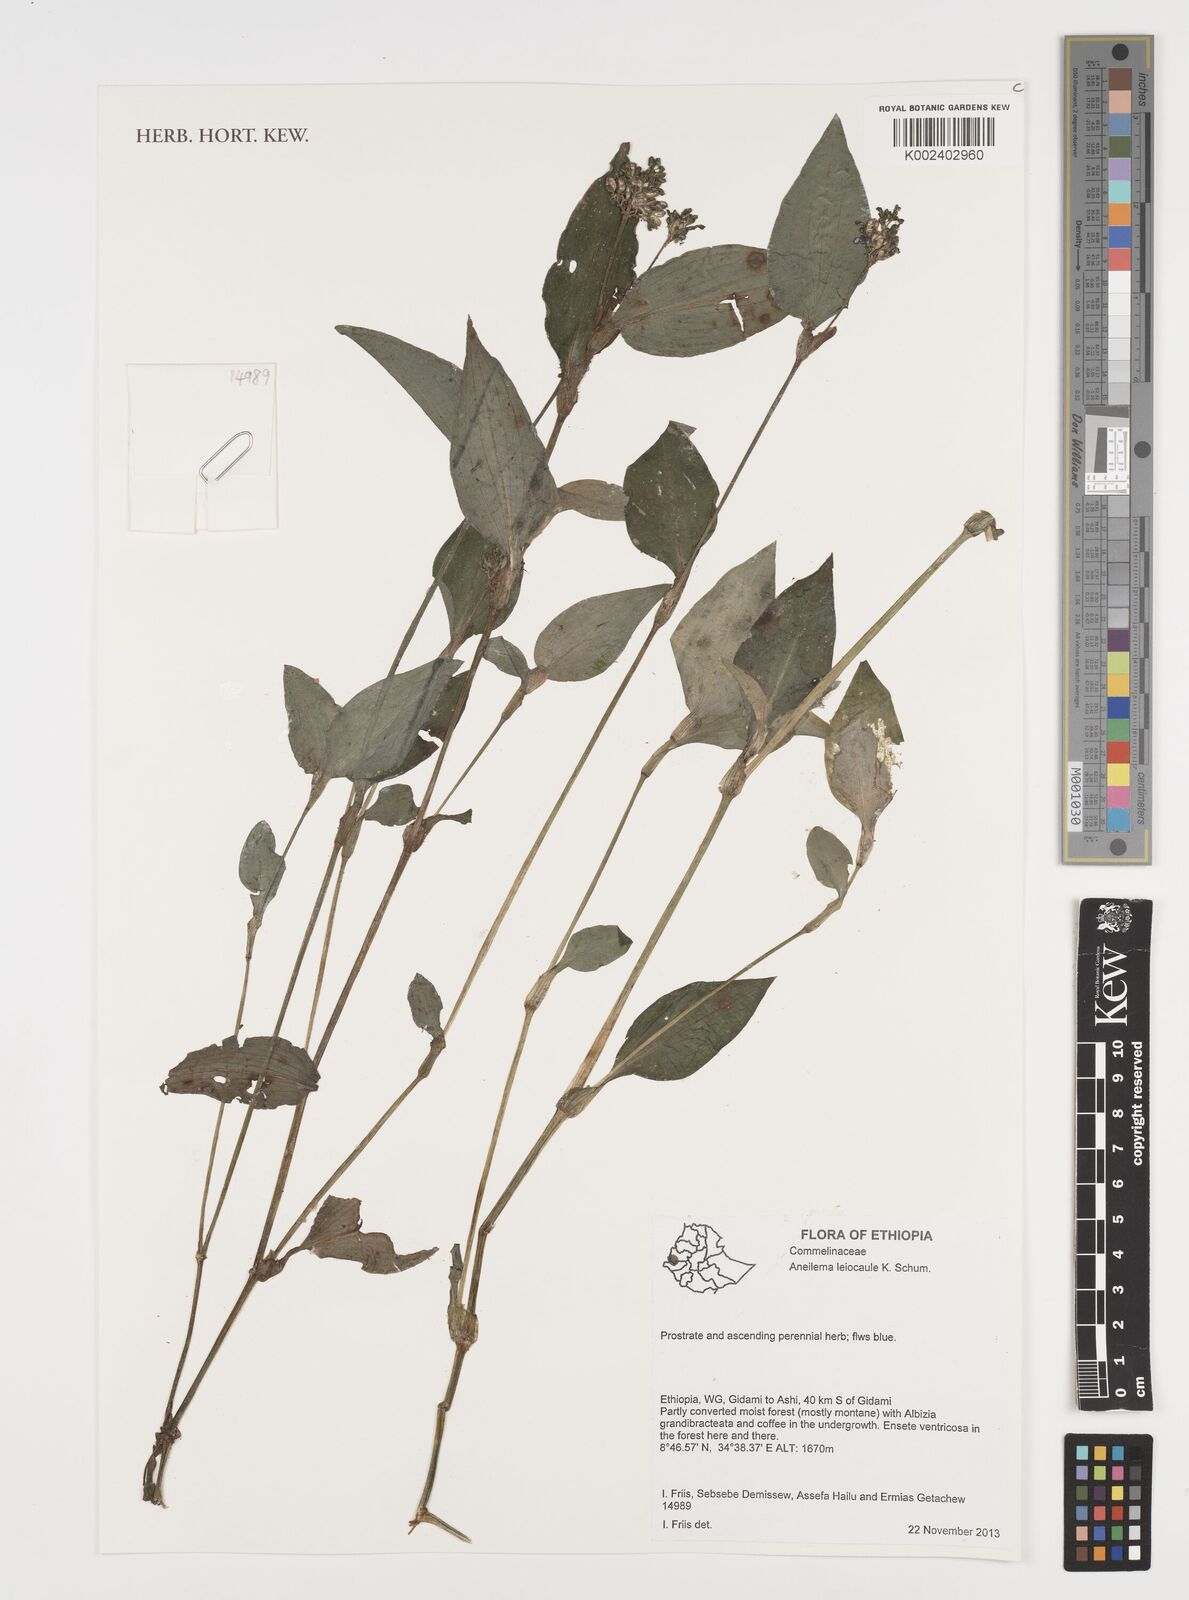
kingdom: Plantae
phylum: Tracheophyta
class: Liliopsida
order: Commelinales
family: Commelinaceae
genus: Aneilema
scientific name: Aneilema leiocaule
